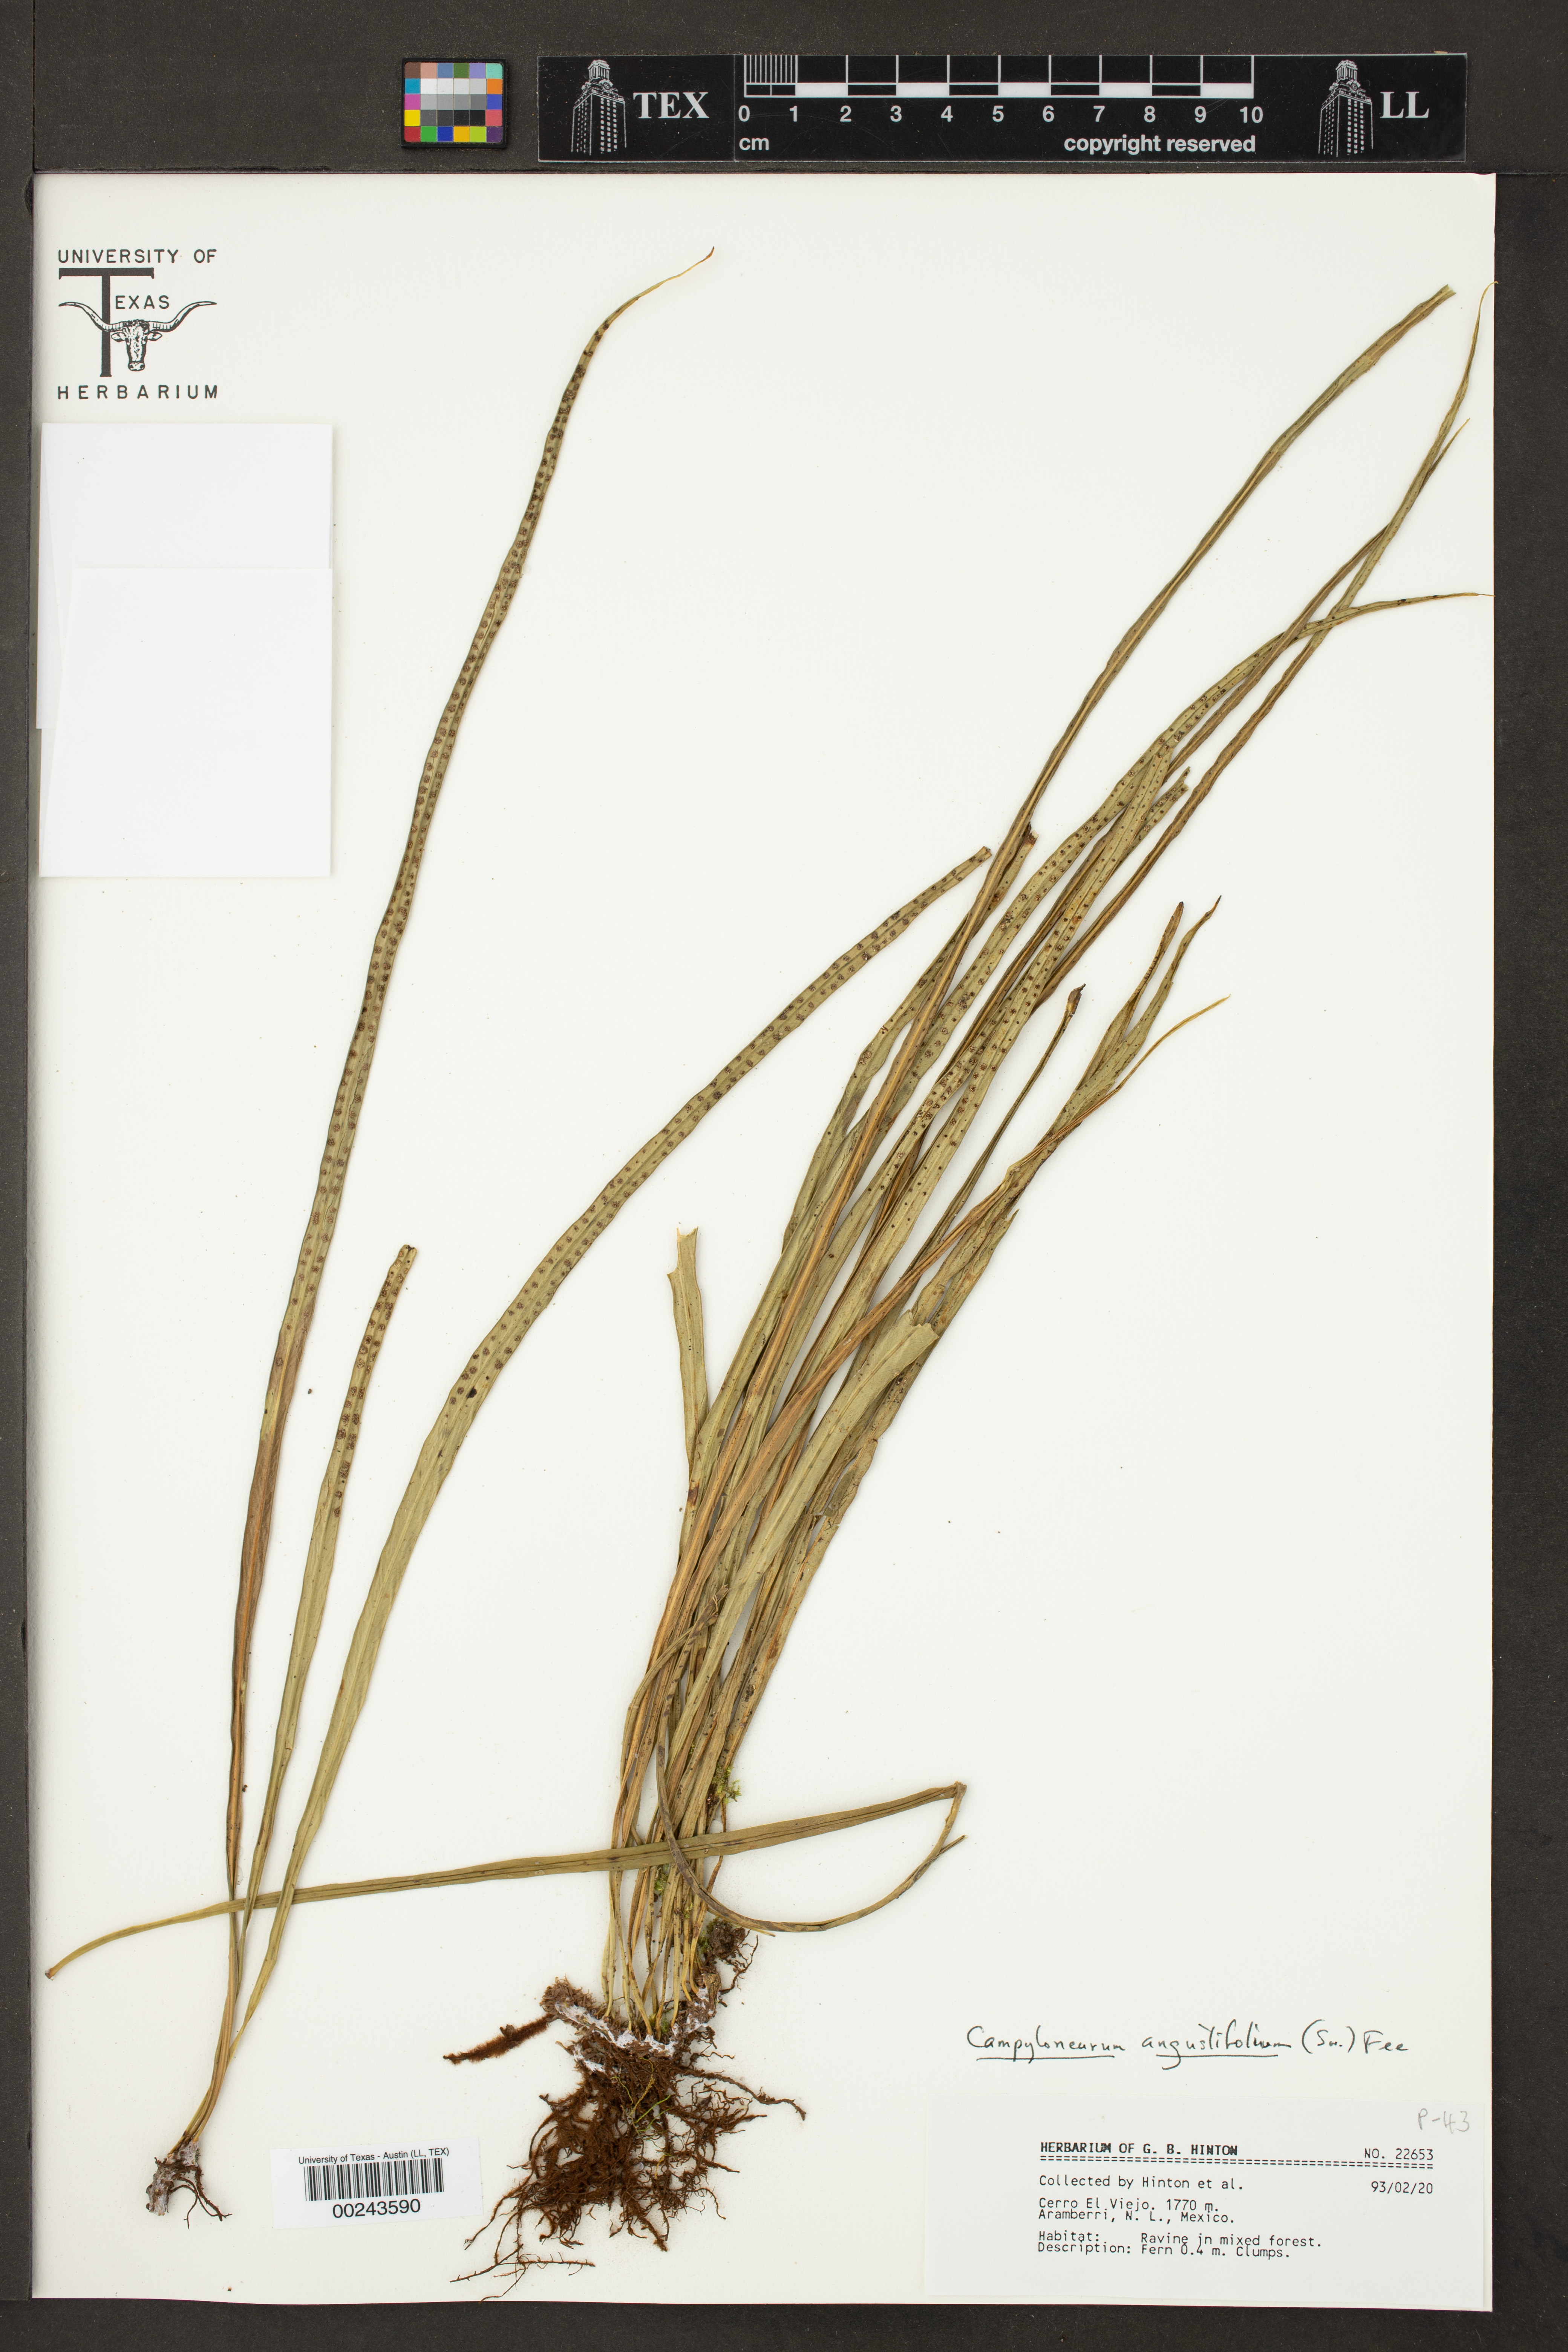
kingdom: Plantae
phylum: Tracheophyta
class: Polypodiopsida
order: Polypodiales
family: Polypodiaceae
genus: Campyloneurum
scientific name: Campyloneurum angustifolium
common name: Narrow-leaf strap fern
